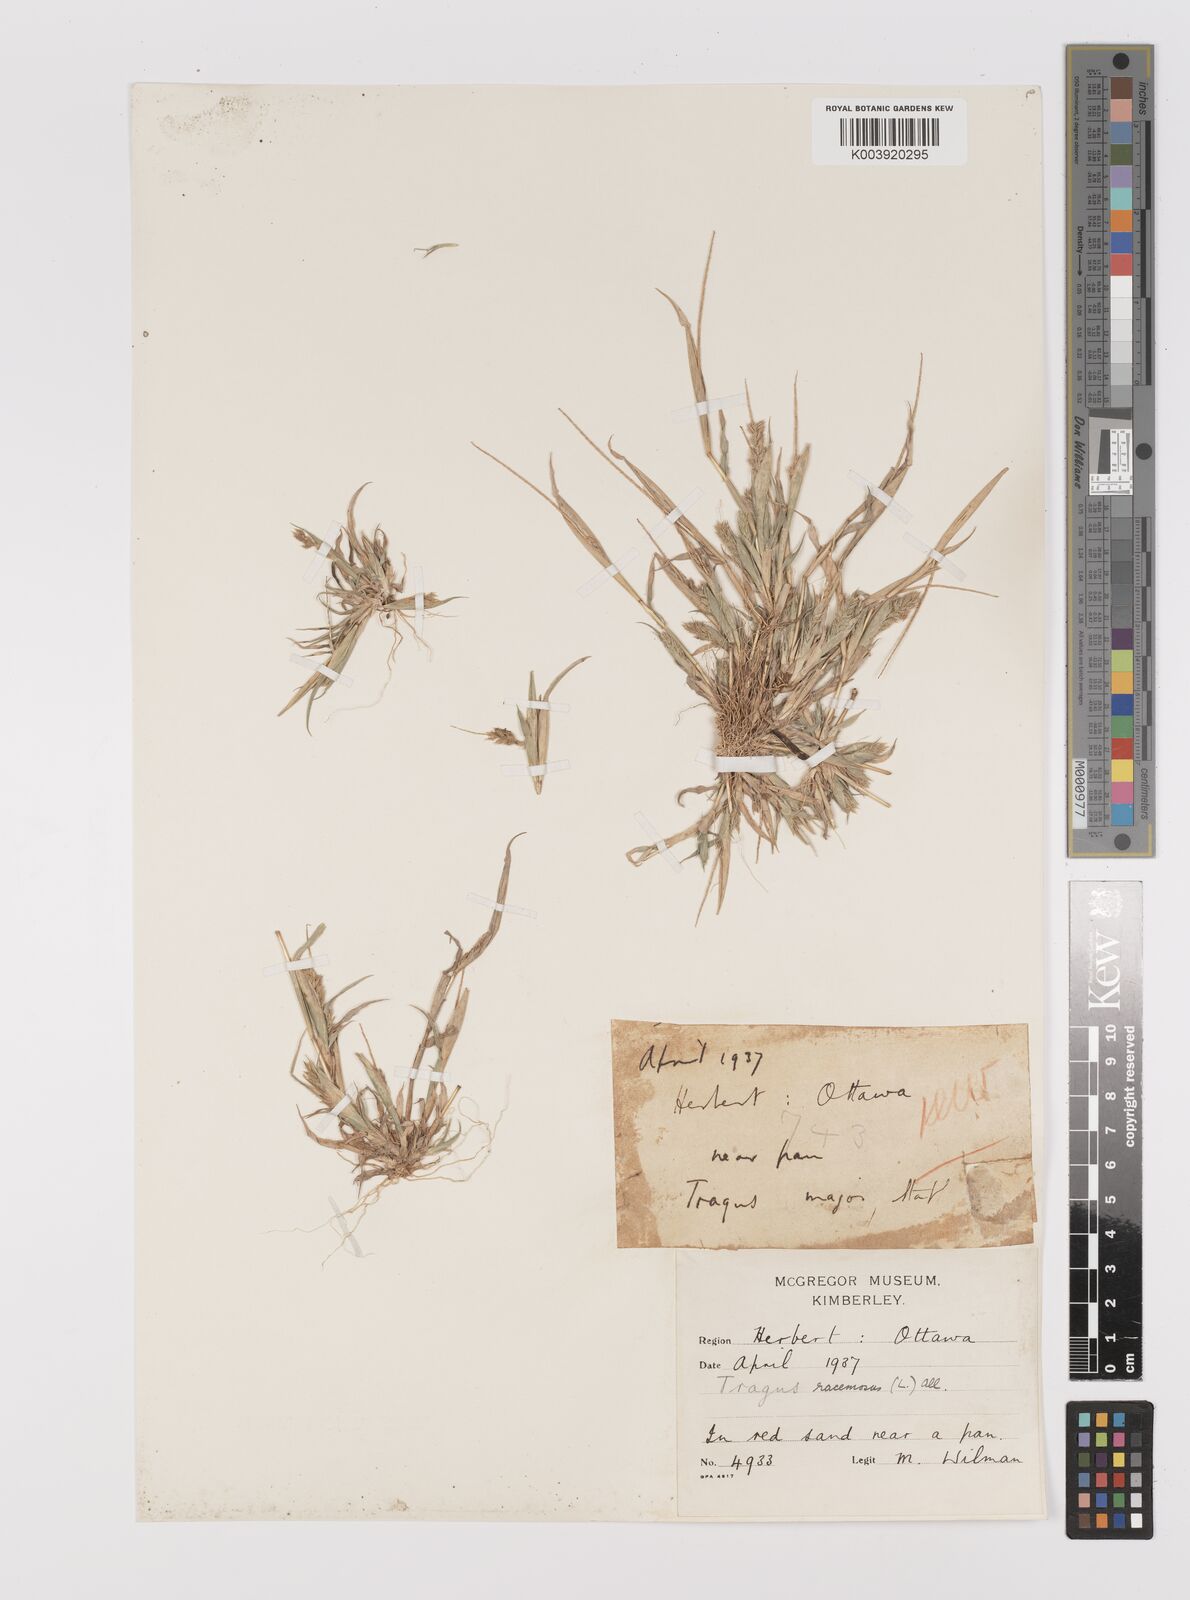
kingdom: Plantae
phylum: Tracheophyta
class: Liliopsida
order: Poales
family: Poaceae
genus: Tragus
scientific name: Tragus racemosus
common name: European bur-grass
